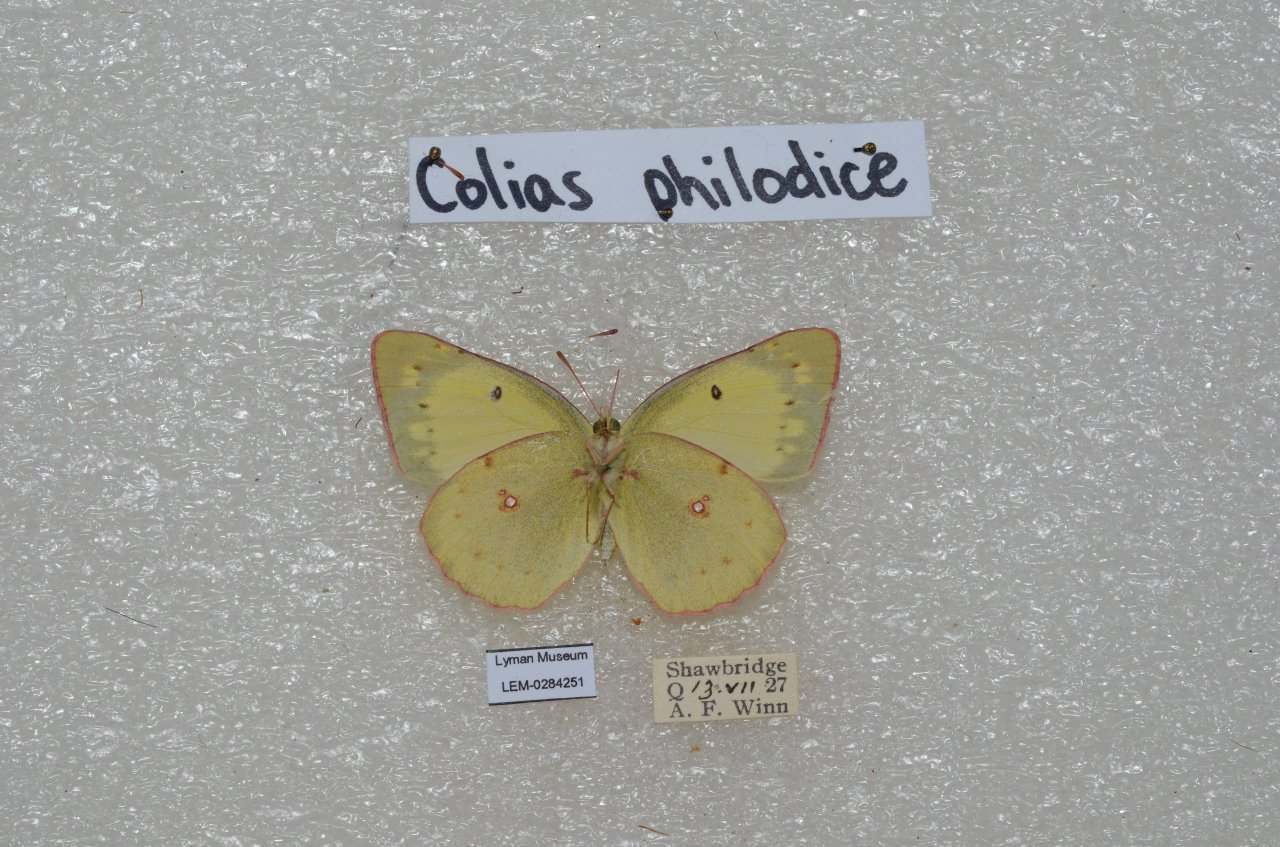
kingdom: Animalia
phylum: Arthropoda
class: Insecta
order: Lepidoptera
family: Pieridae
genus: Colias
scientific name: Colias philodice
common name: Clouded Sulphur
